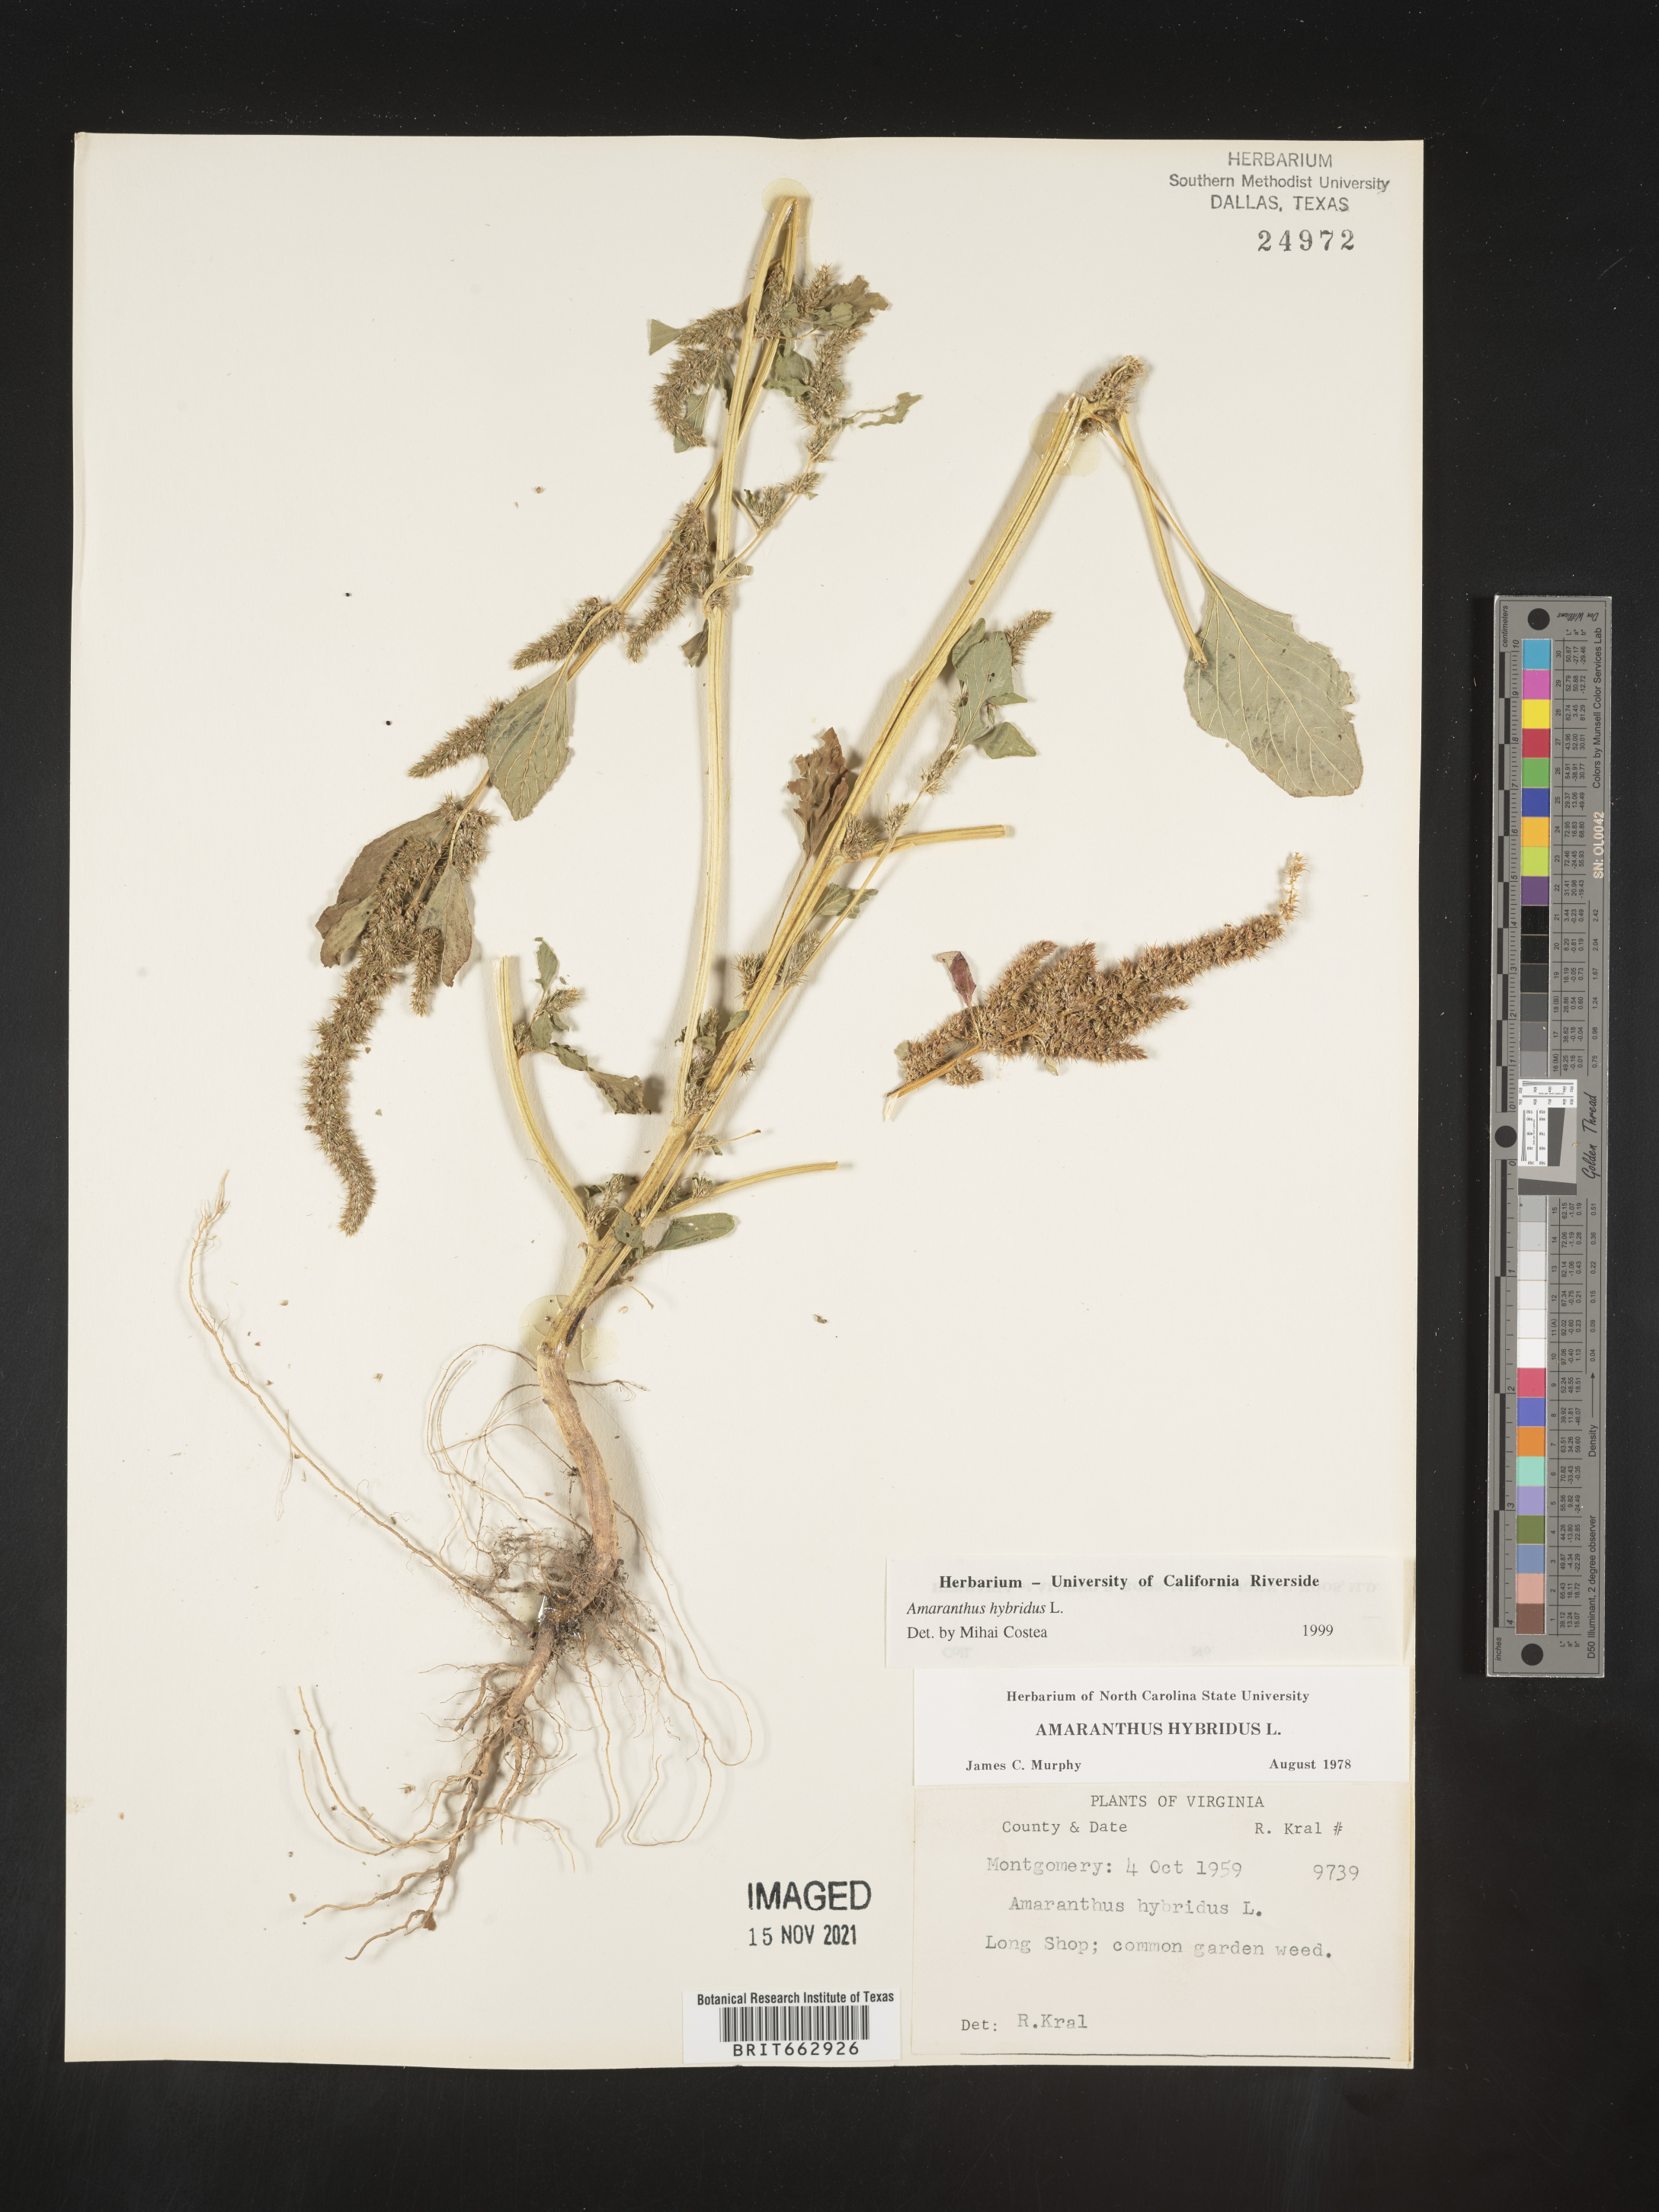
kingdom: Plantae
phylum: Tracheophyta
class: Magnoliopsida
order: Caryophyllales
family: Amaranthaceae
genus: Amaranthus
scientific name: Amaranthus hybridus
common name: Green amaranth
